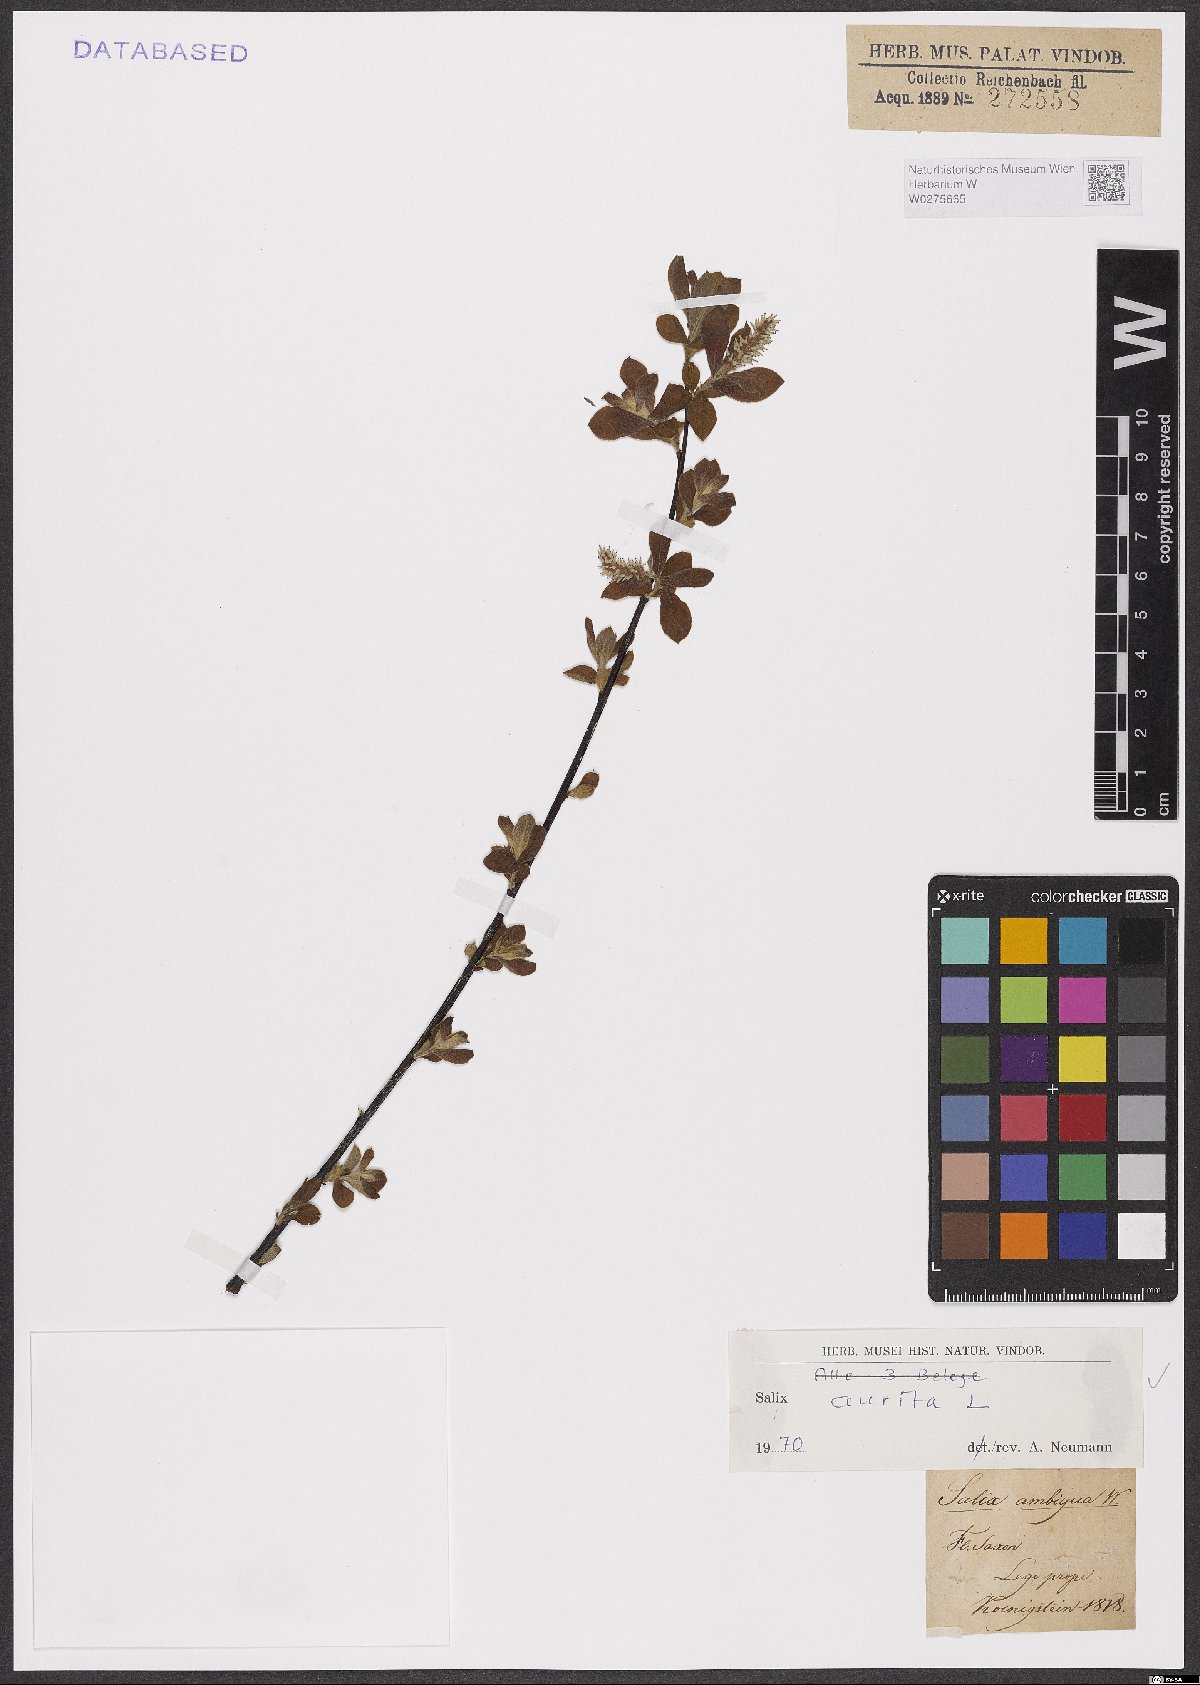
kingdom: Plantae
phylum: Tracheophyta
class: Magnoliopsida
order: Malpighiales
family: Salicaceae
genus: Salix
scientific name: Salix aurita
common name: Eared willow
